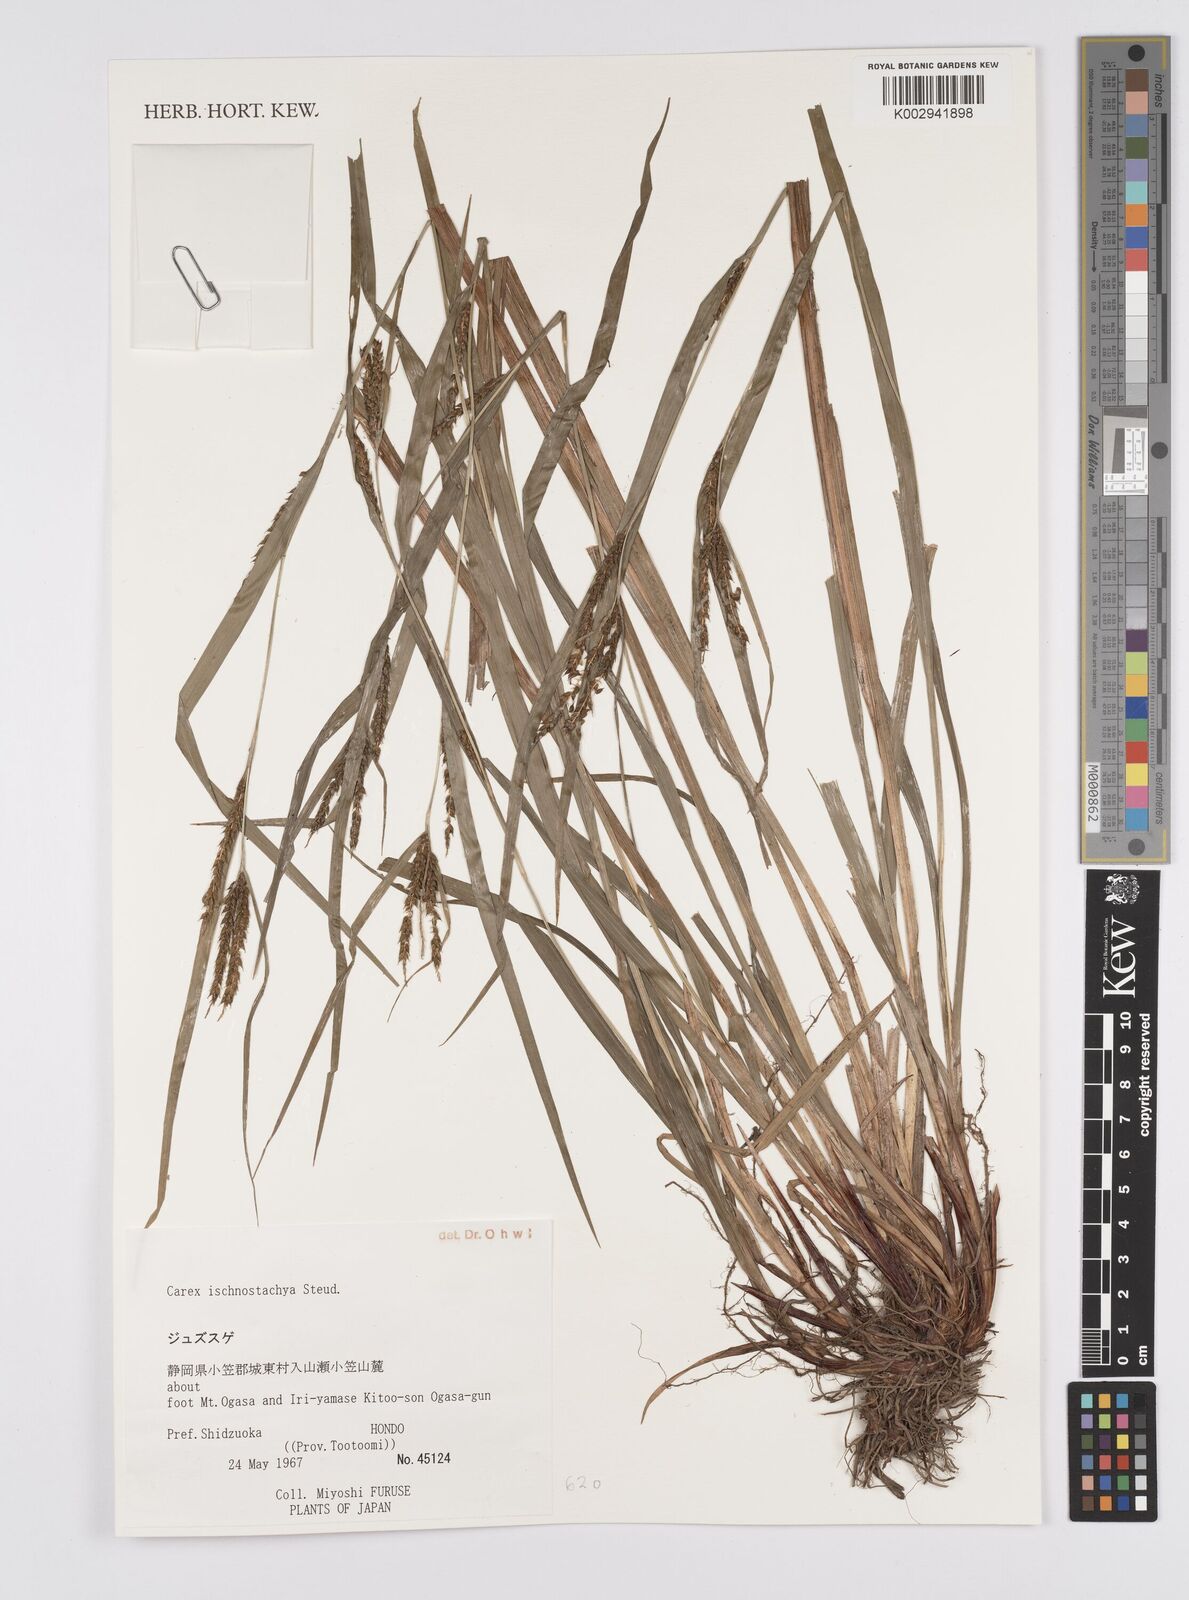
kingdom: Plantae
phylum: Tracheophyta
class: Liliopsida
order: Poales
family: Cyperaceae
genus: Carex
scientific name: Carex ischnostachya
